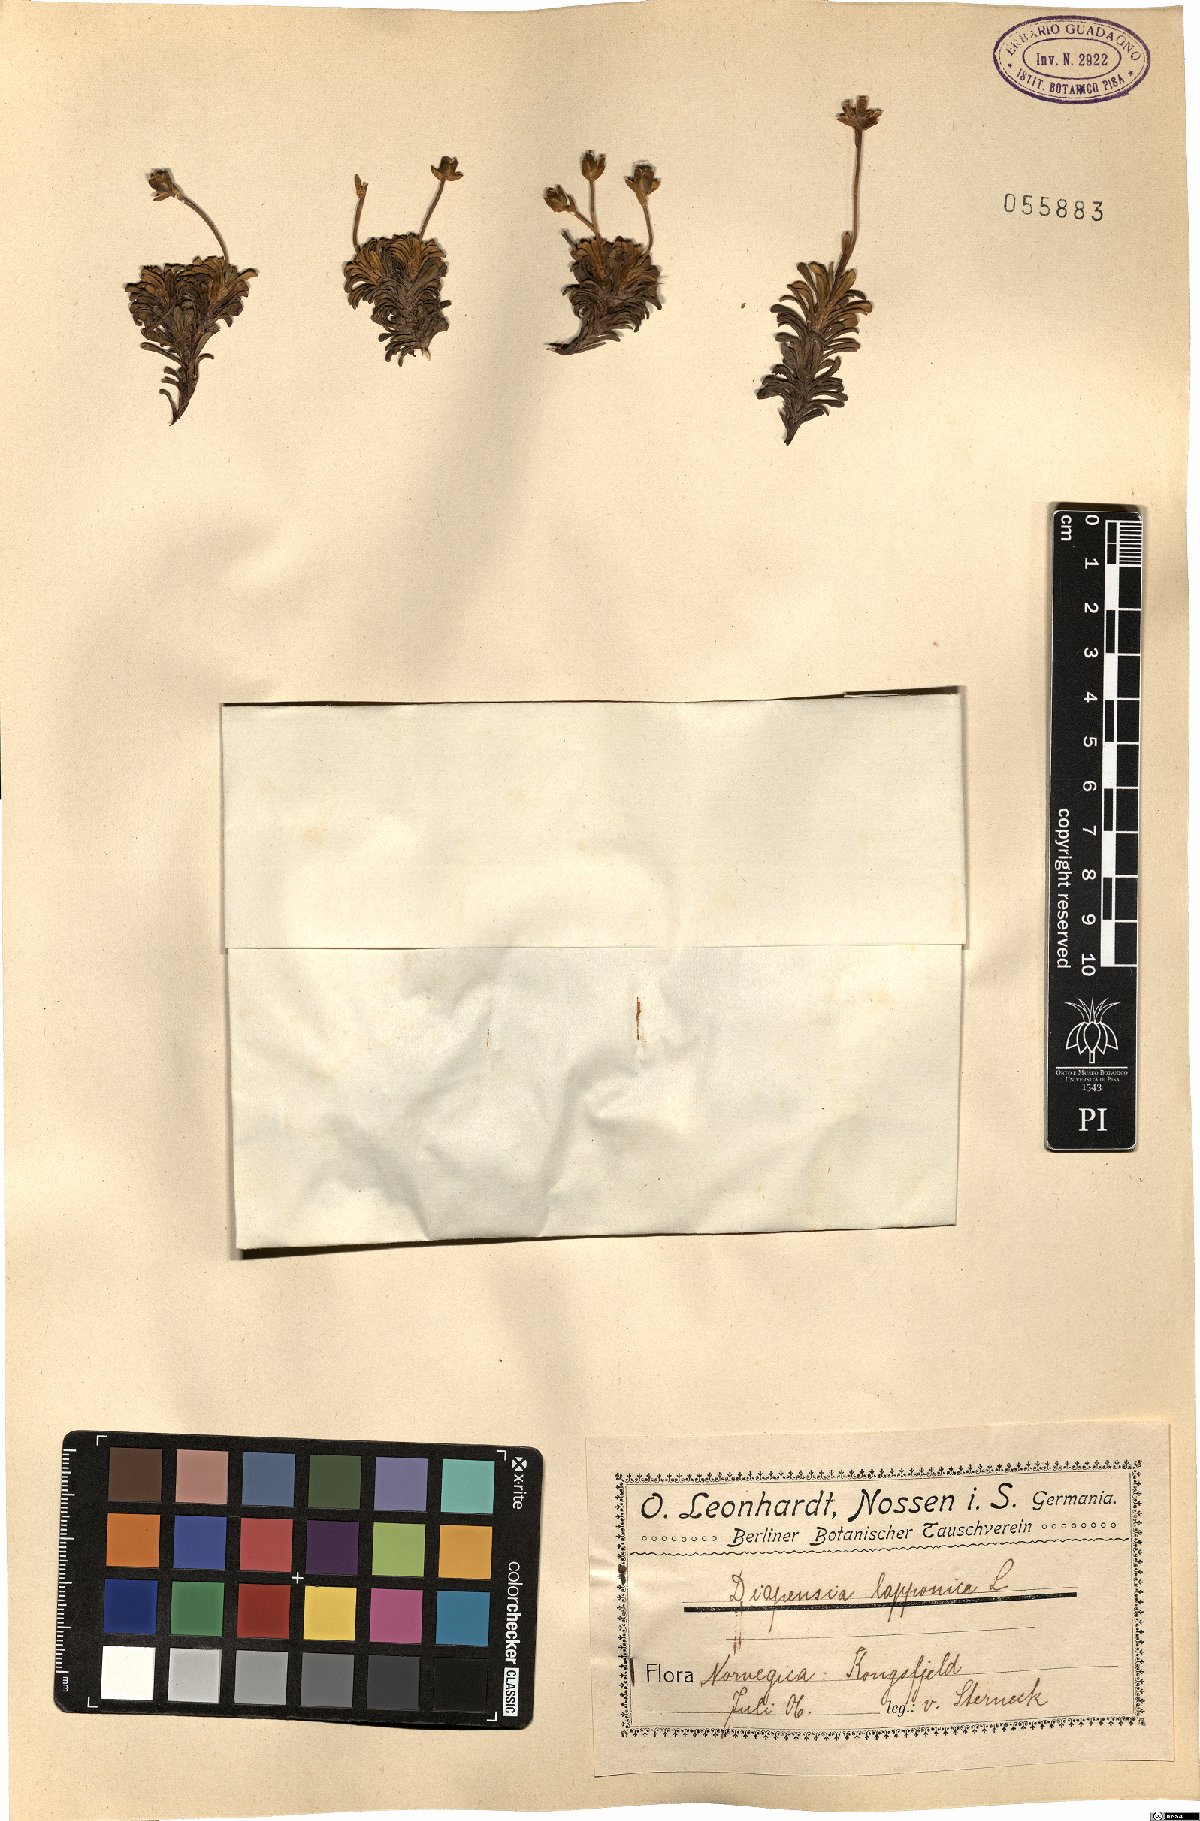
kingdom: Plantae
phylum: Tracheophyta
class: Magnoliopsida
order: Ericales
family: Diapensiaceae
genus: Diapensia
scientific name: Diapensia lapponica
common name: Diapensia
